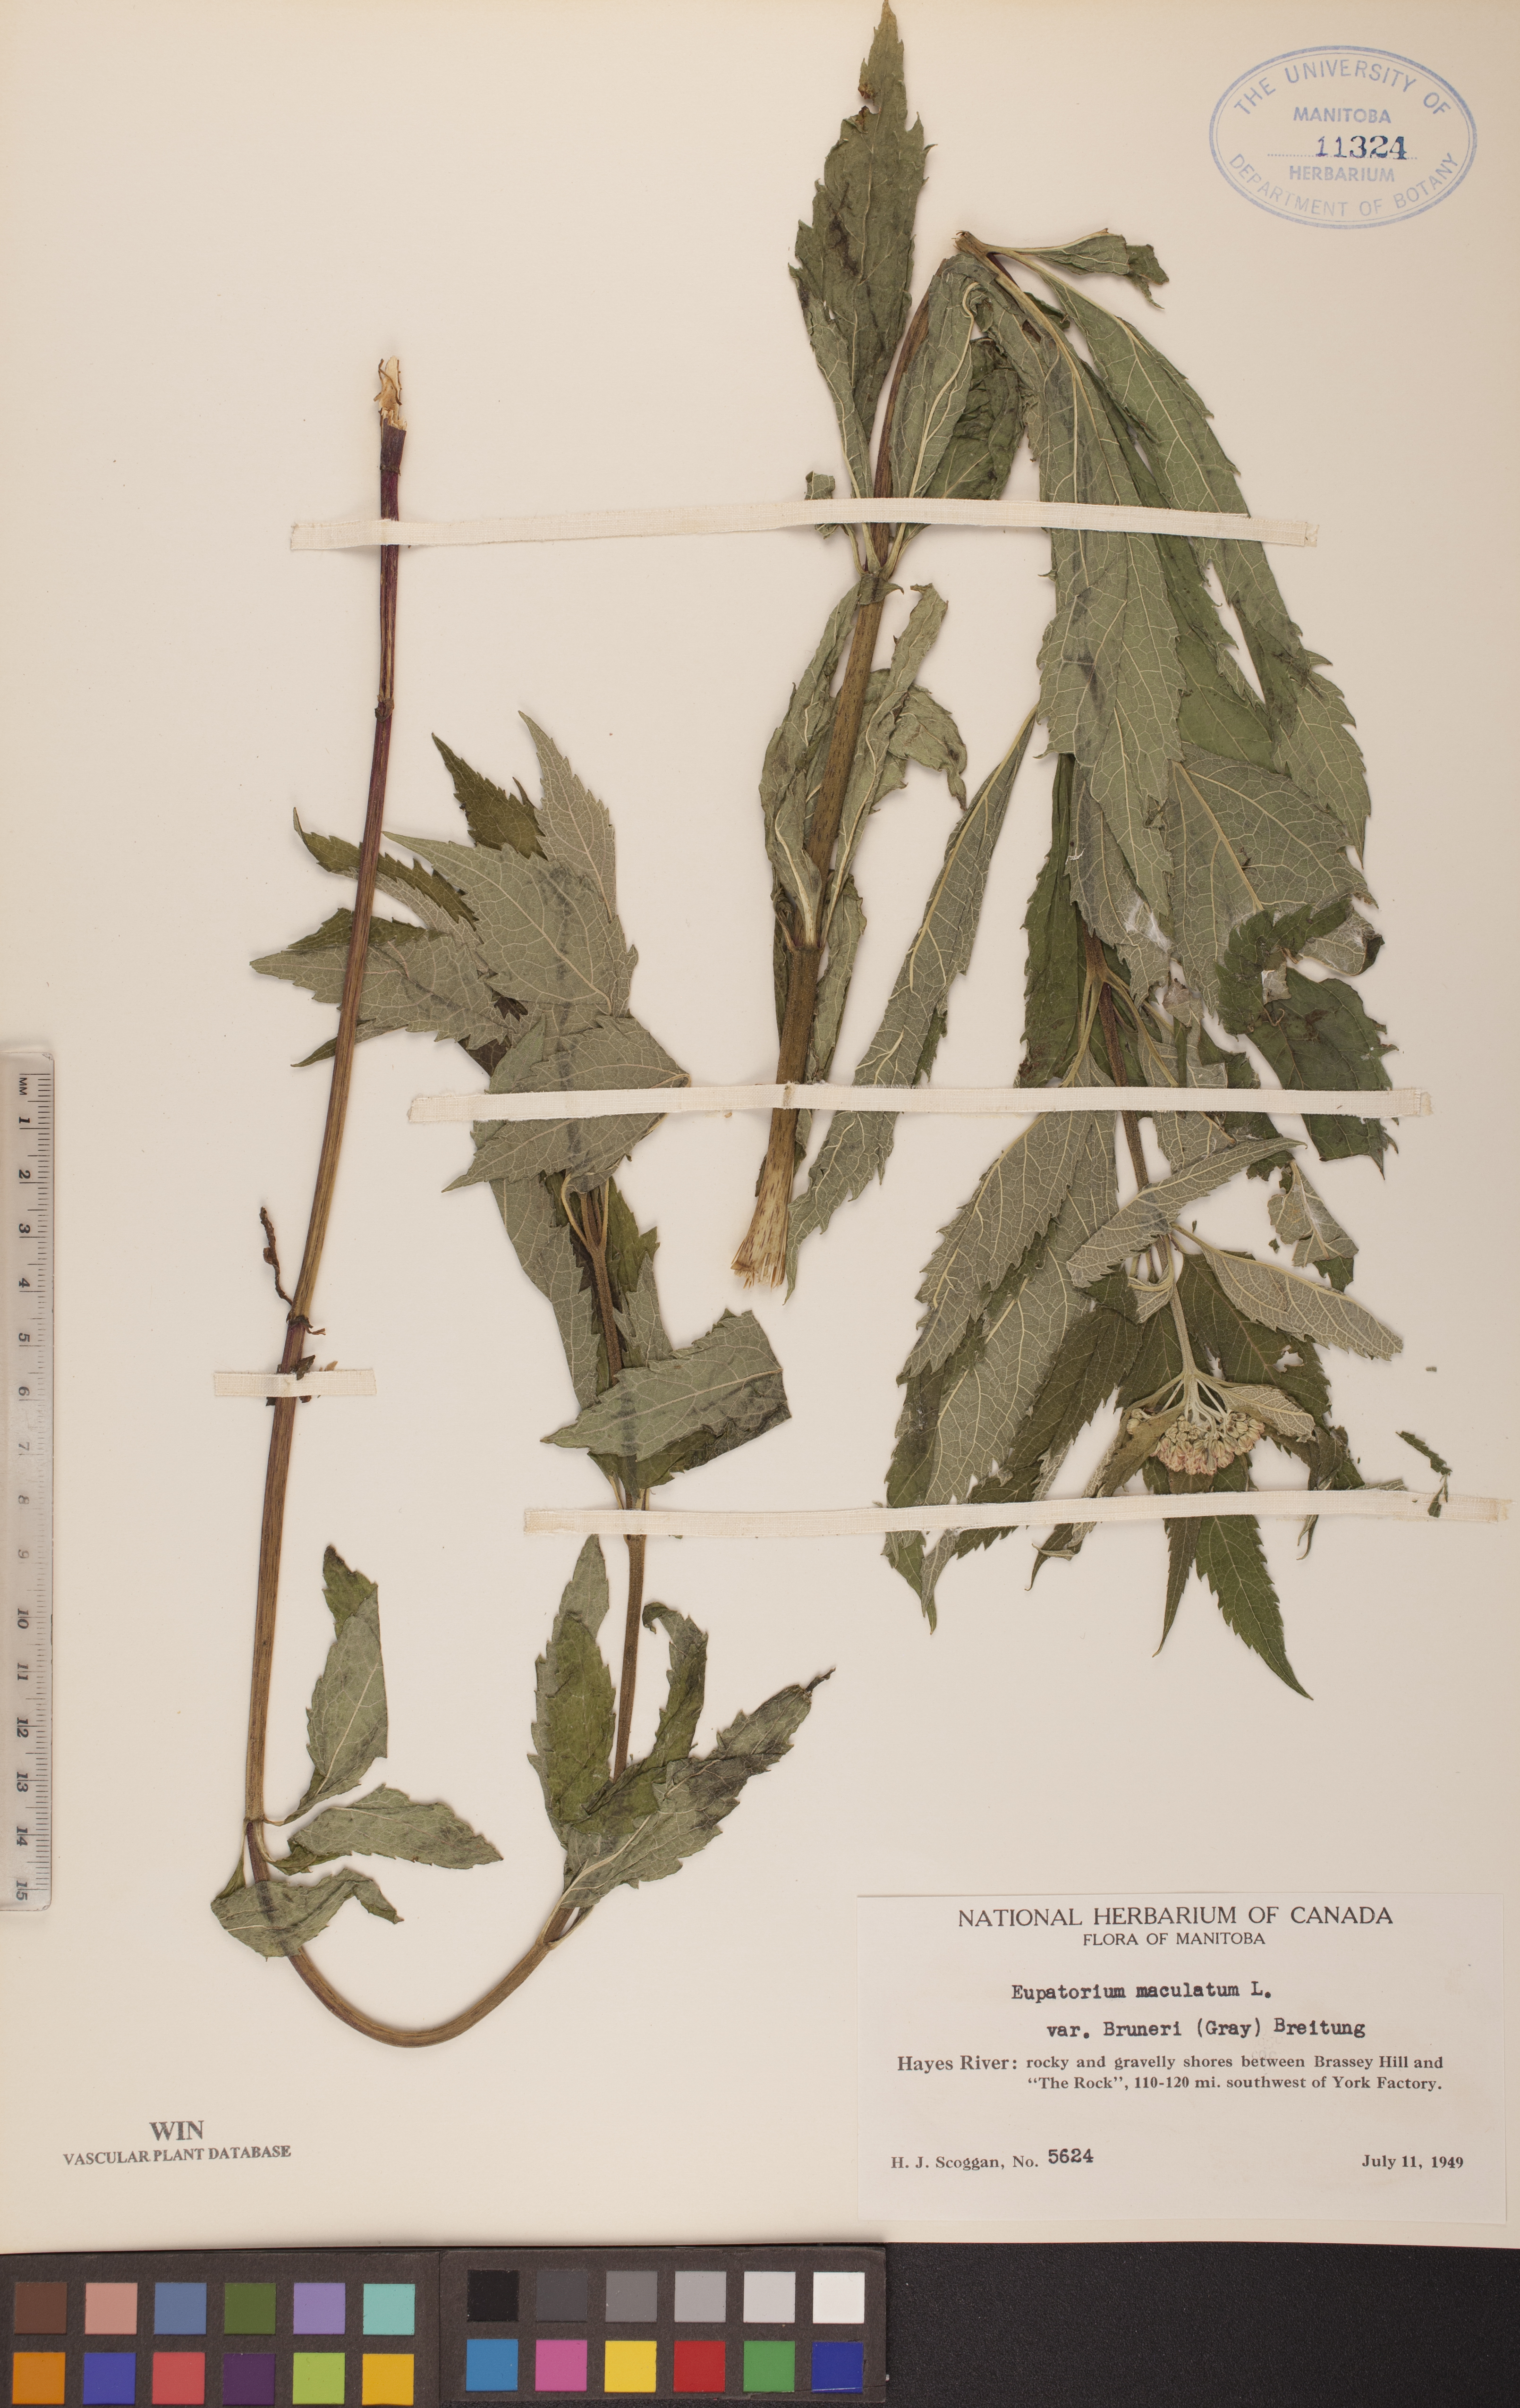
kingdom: Plantae
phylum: Tracheophyta
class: Magnoliopsida
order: Asterales
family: Asteraceae
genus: Eutrochium
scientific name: Eutrochium maculatum
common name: Spotted joe pye weed
